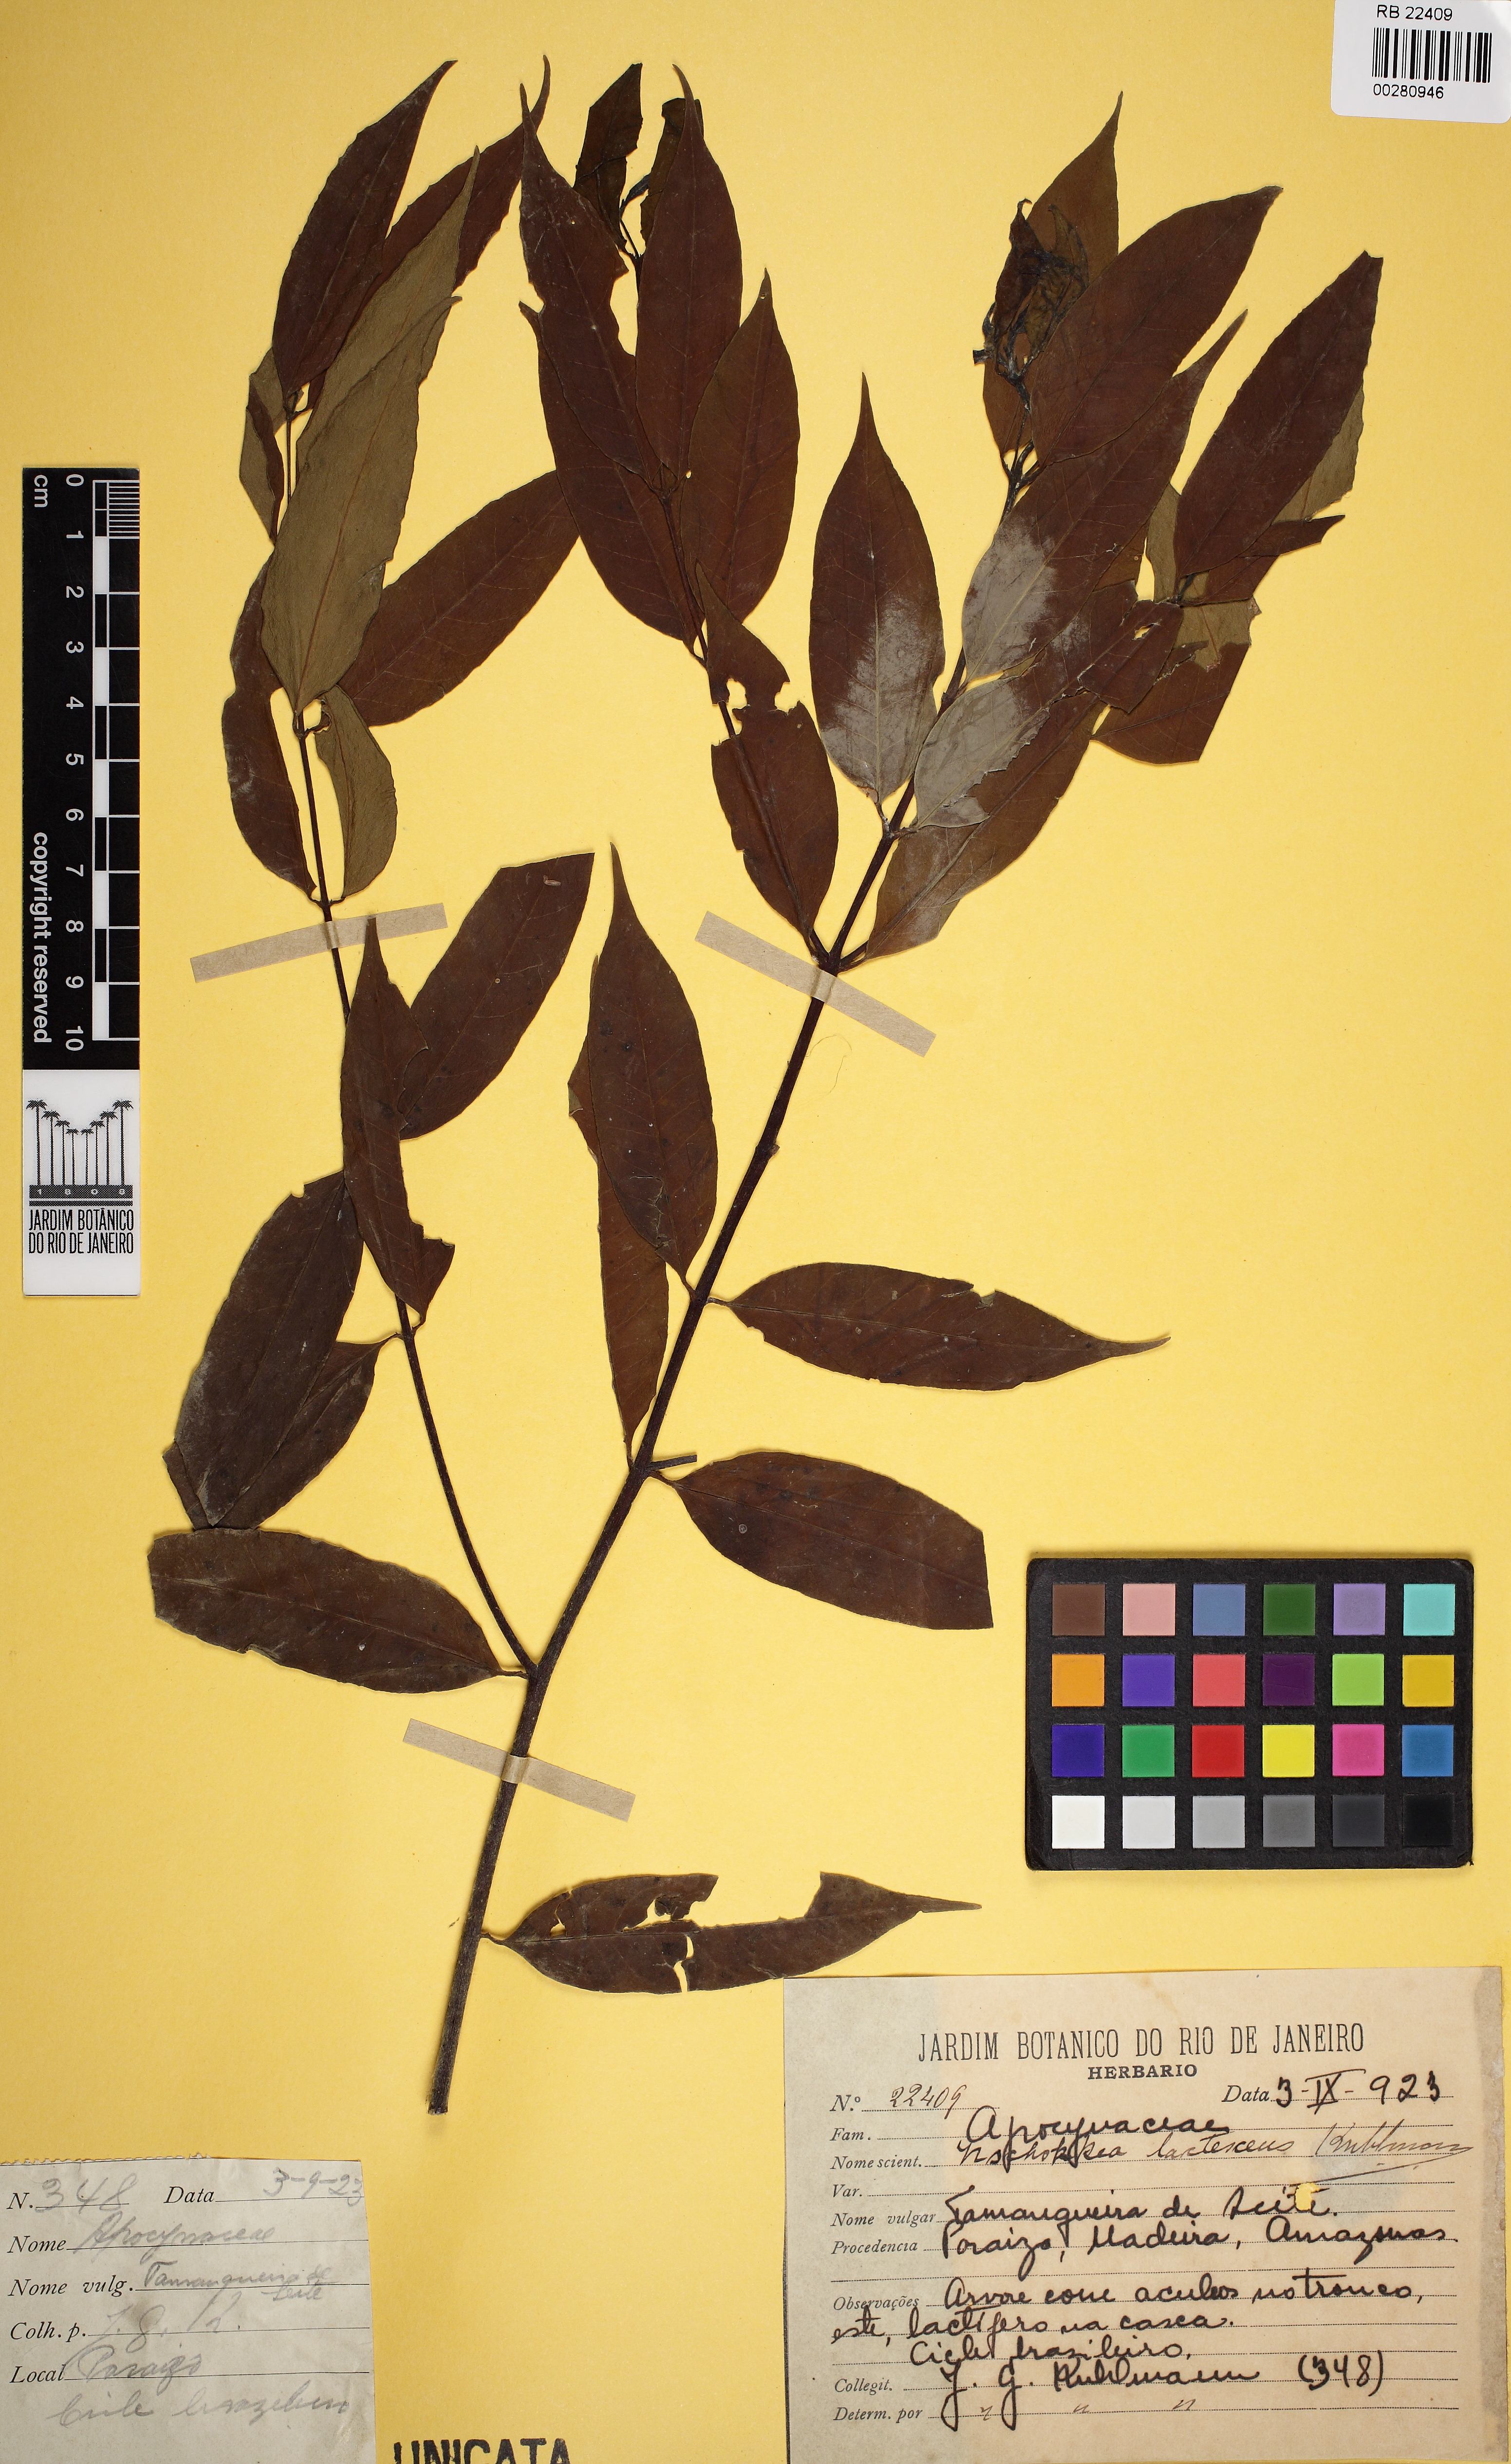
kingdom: Plantae
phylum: Tracheophyta
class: Magnoliopsida
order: Gentianales
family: Apocynaceae
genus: Lacmellea
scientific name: Lacmellea edulis
